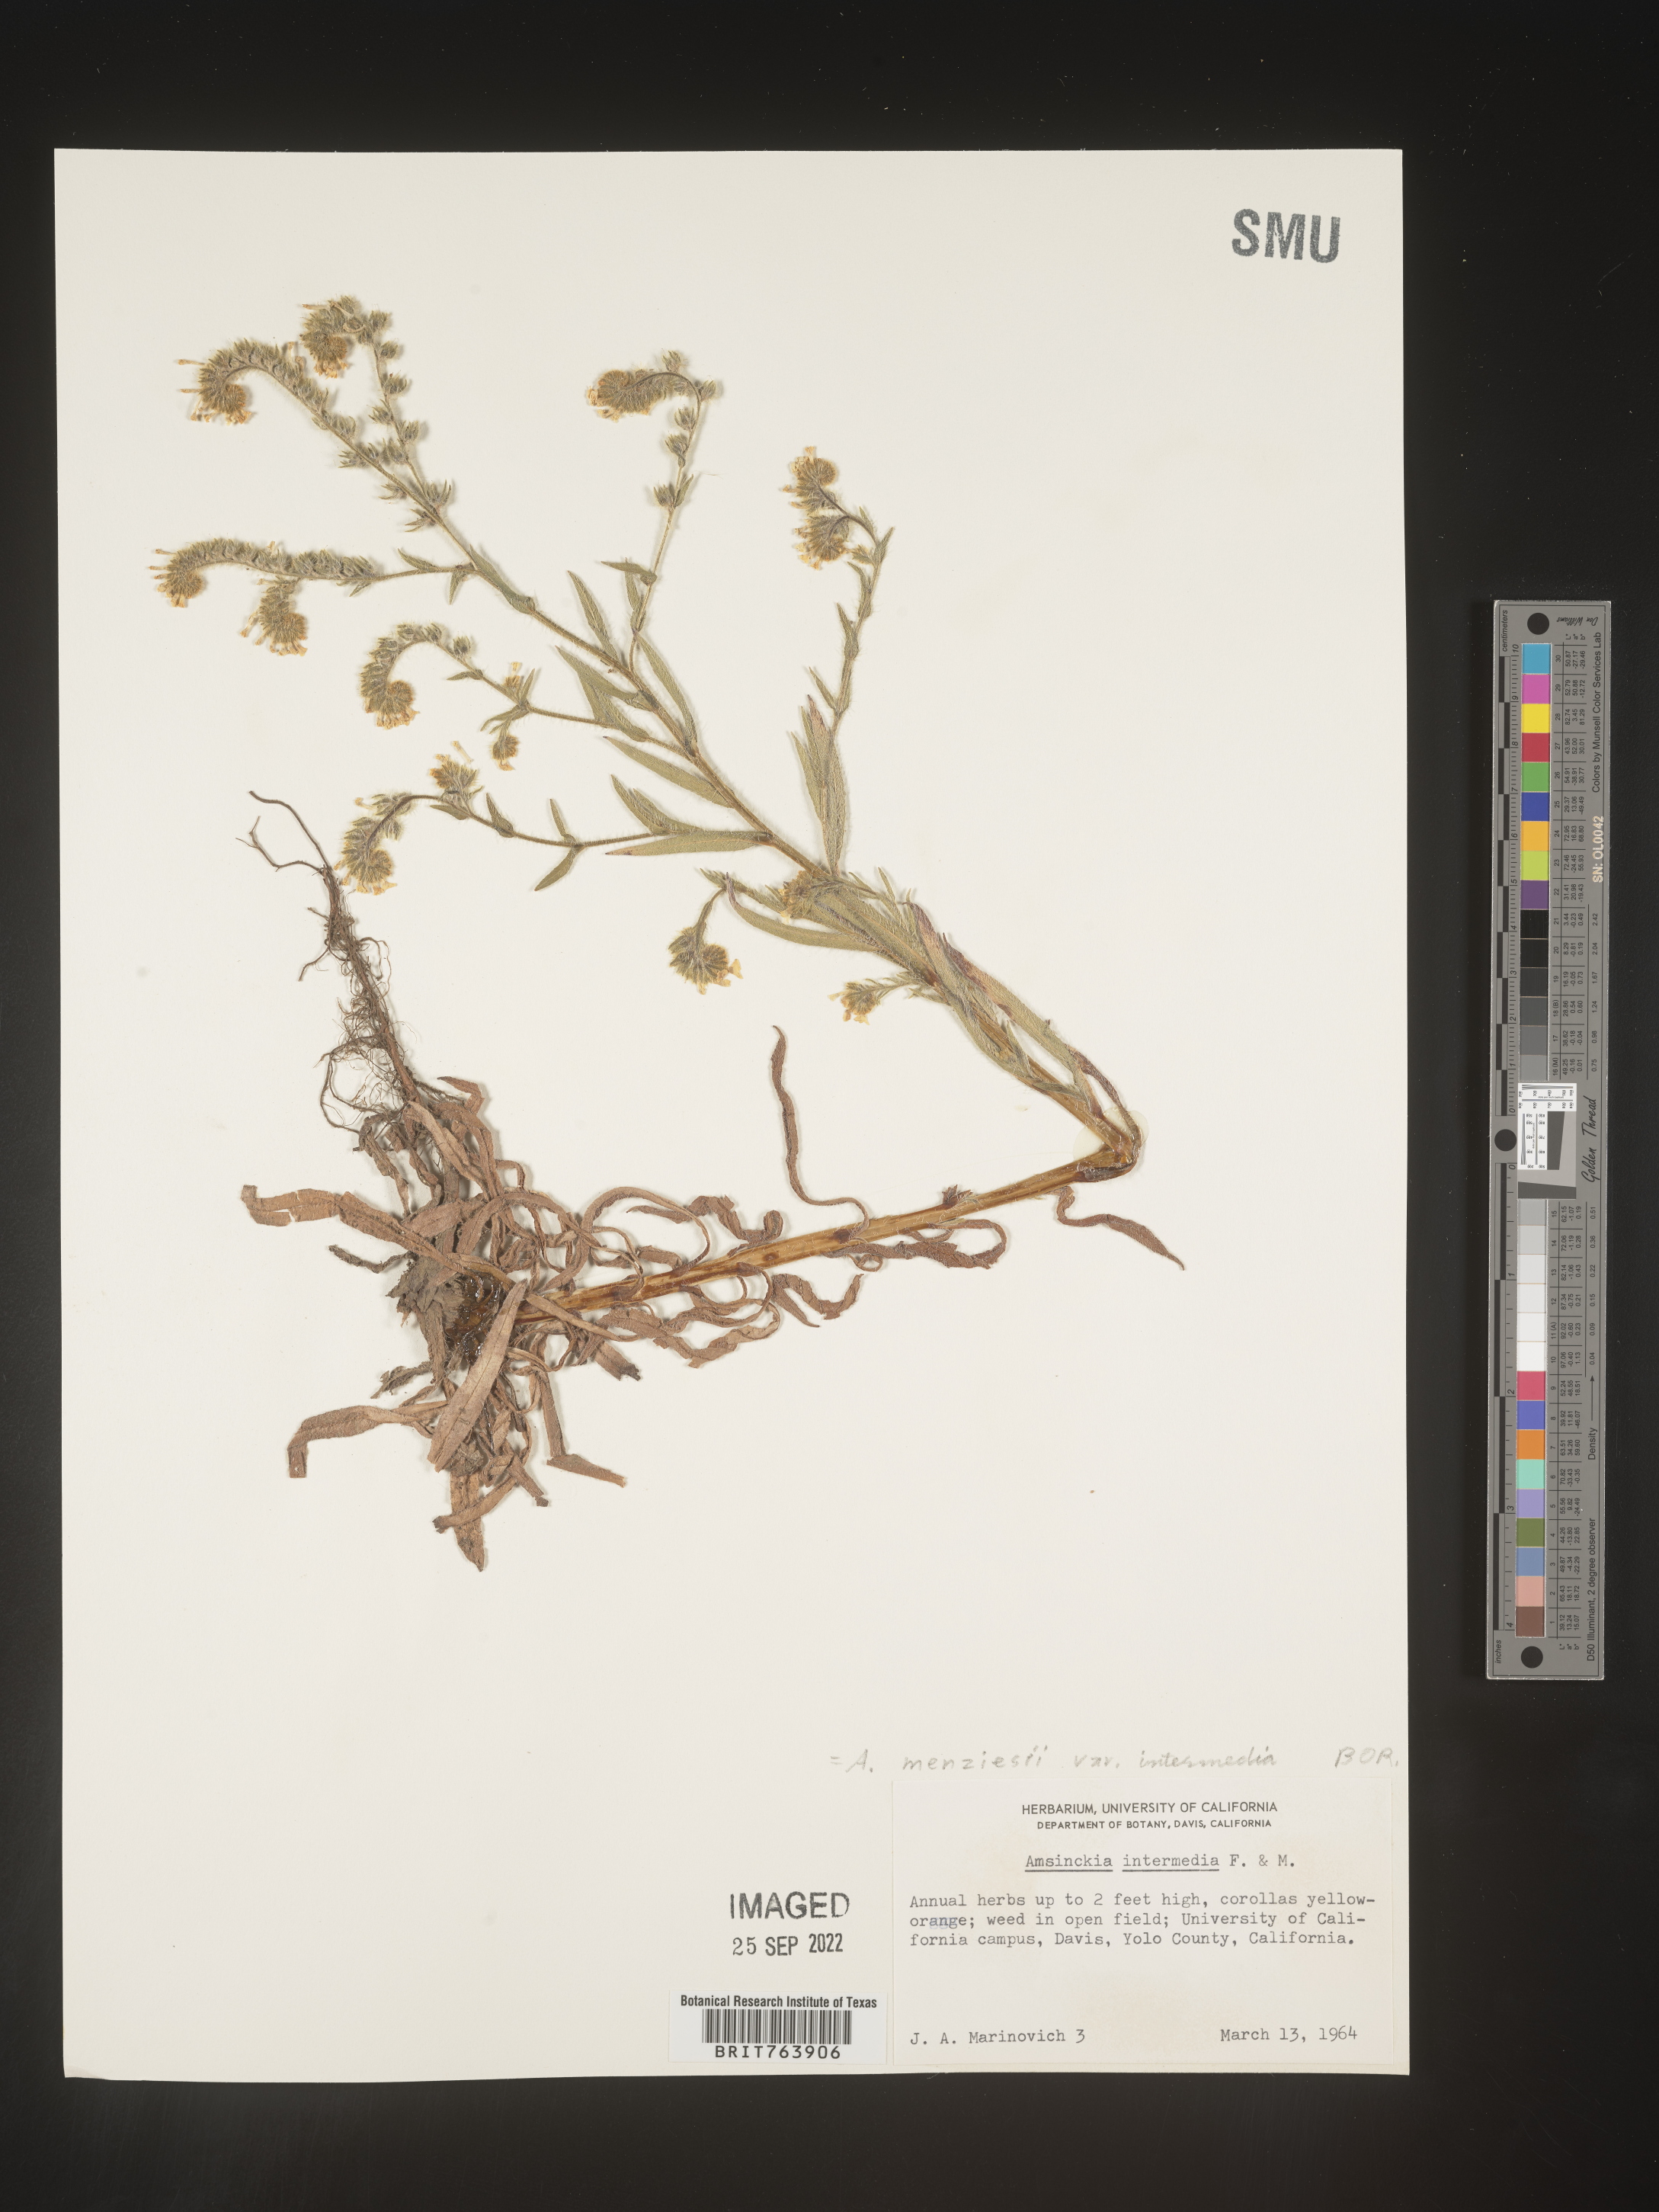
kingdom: Plantae
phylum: Tracheophyta
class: Magnoliopsida
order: Boraginales
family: Boraginaceae
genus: Amsinckia
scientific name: Amsinckia menziesii
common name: Menzies' fiddleneck
